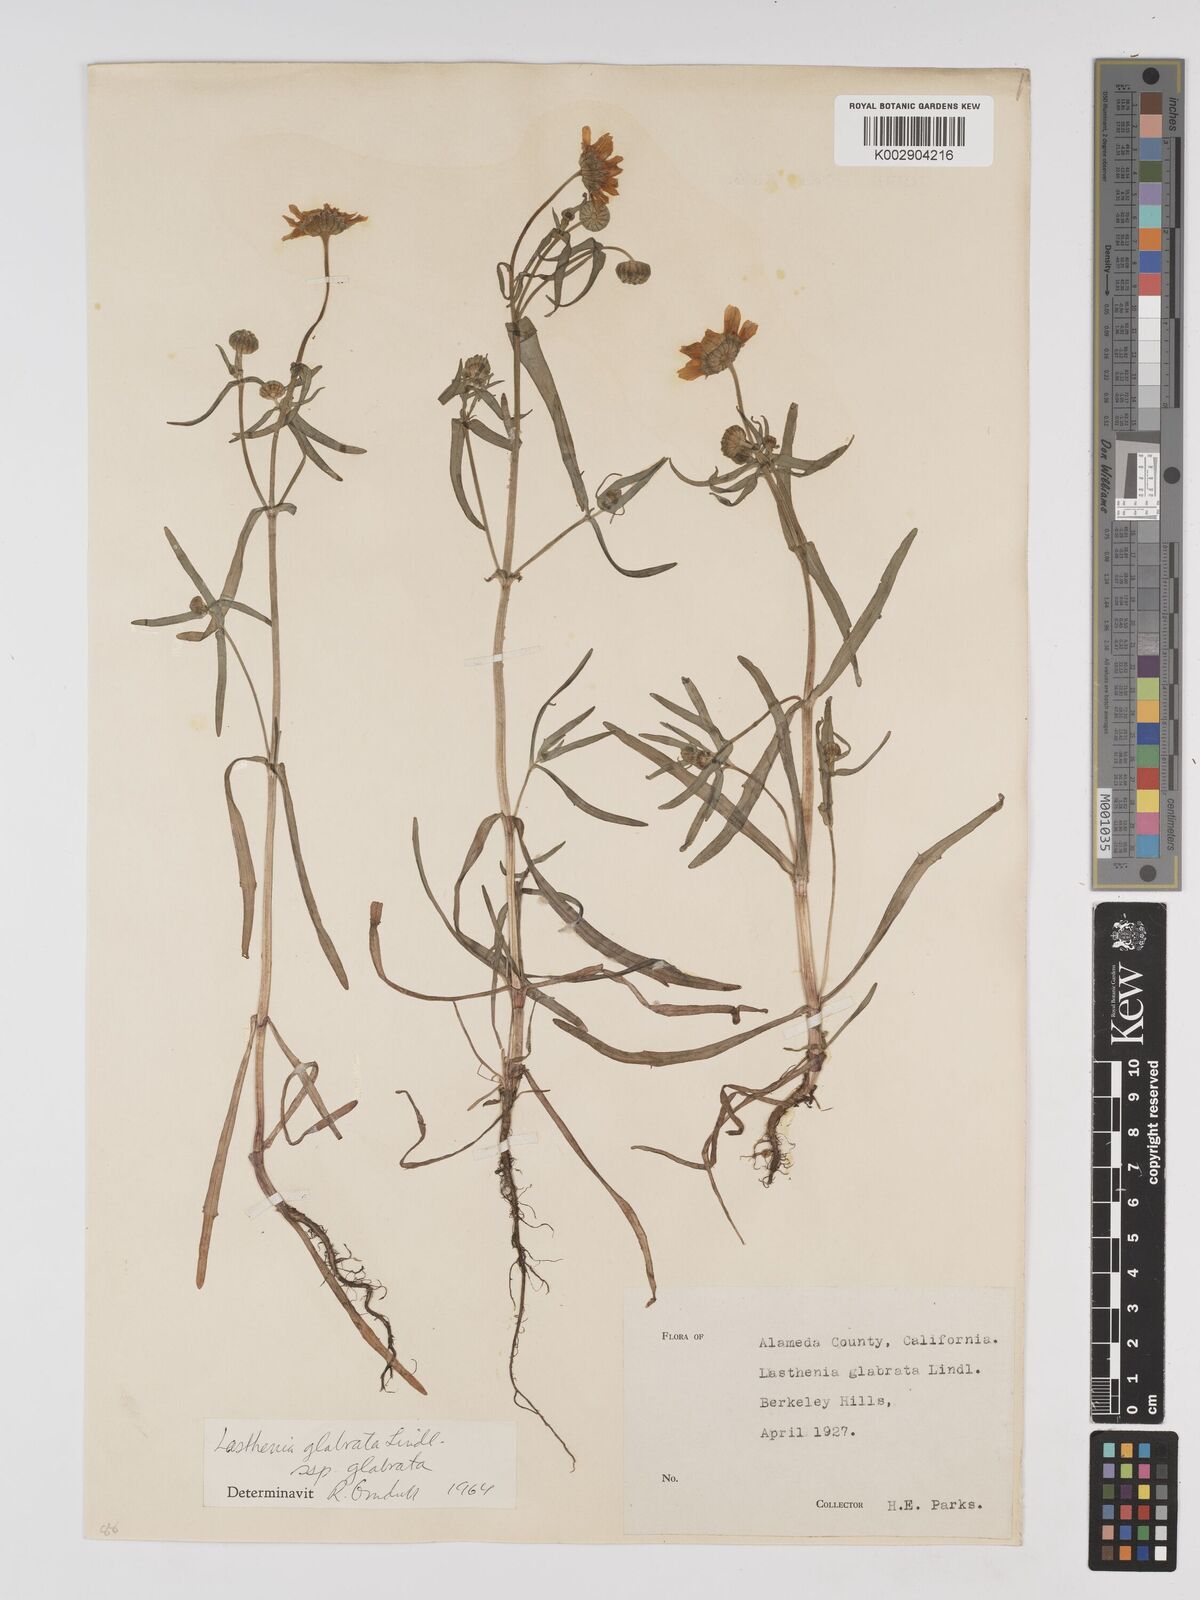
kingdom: Plantae
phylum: Tracheophyta
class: Magnoliopsida
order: Asterales
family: Asteraceae
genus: Lasthenia
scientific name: Lasthenia glabrata
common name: Yellow-ray lasthenia
